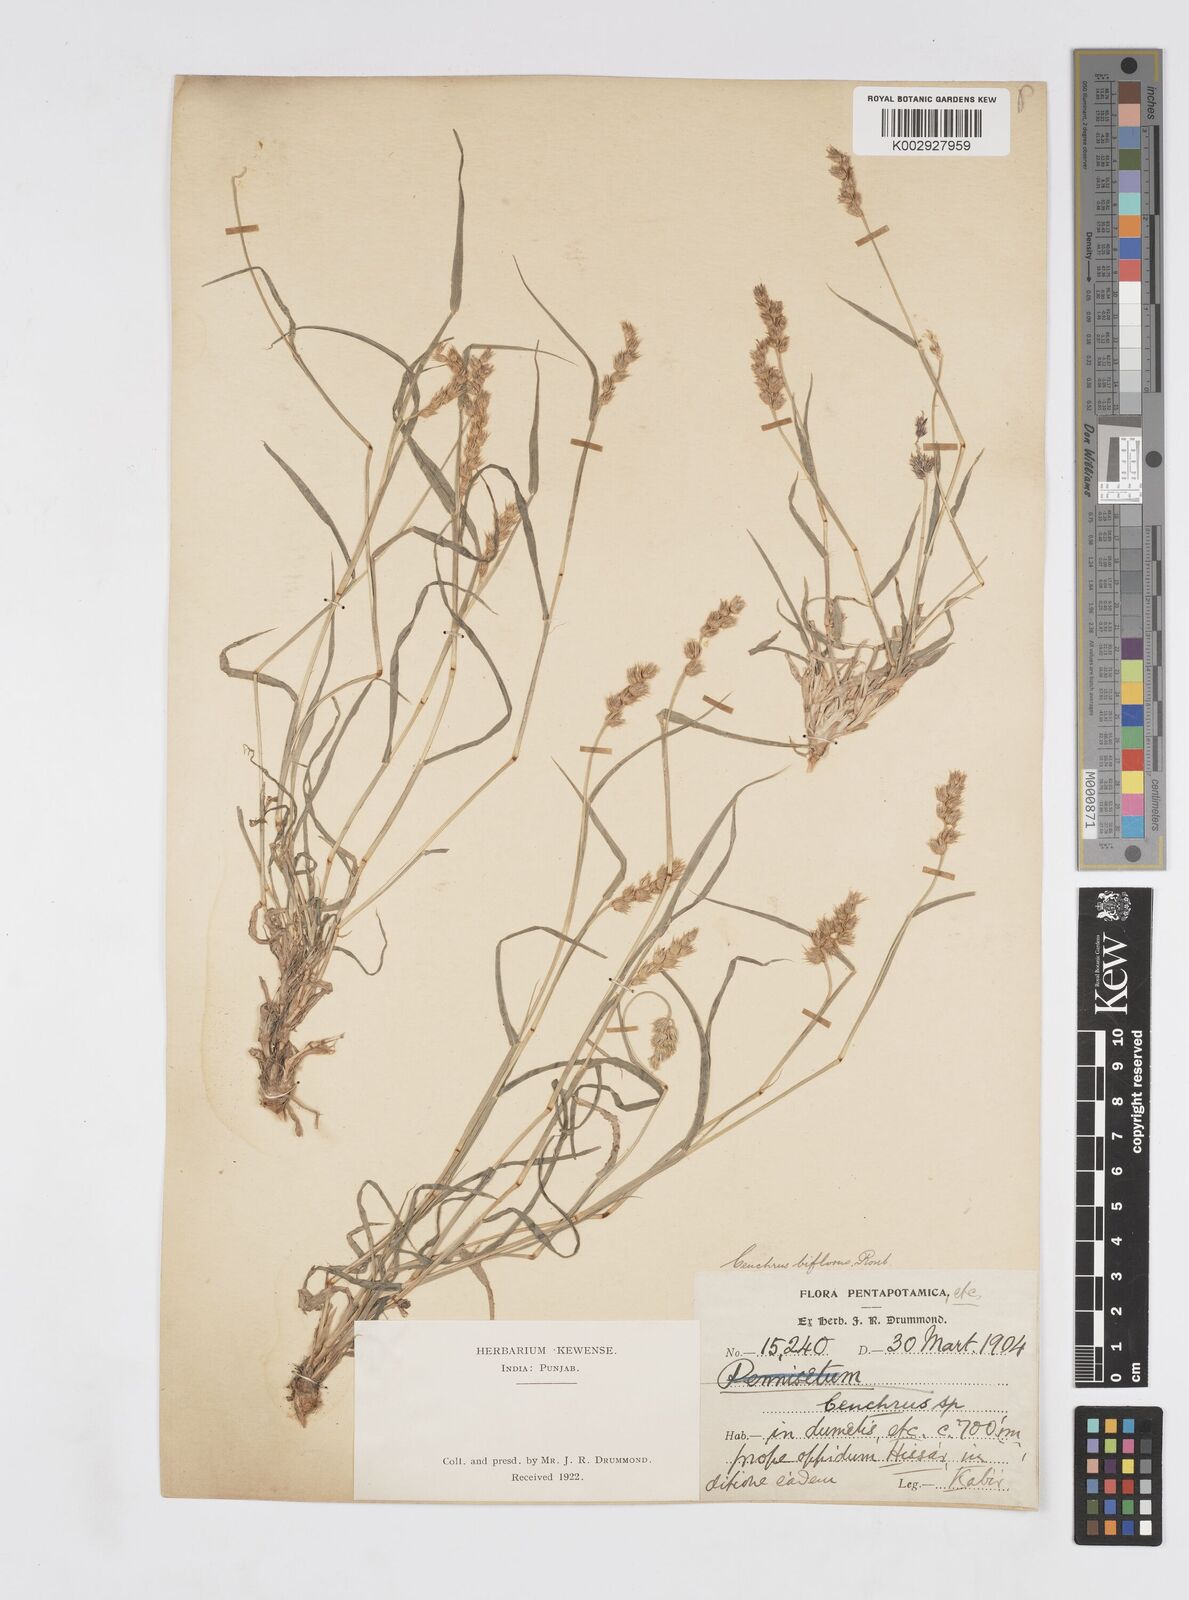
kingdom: Plantae
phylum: Tracheophyta
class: Liliopsida
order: Poales
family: Poaceae
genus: Cenchrus
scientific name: Cenchrus setigerus
